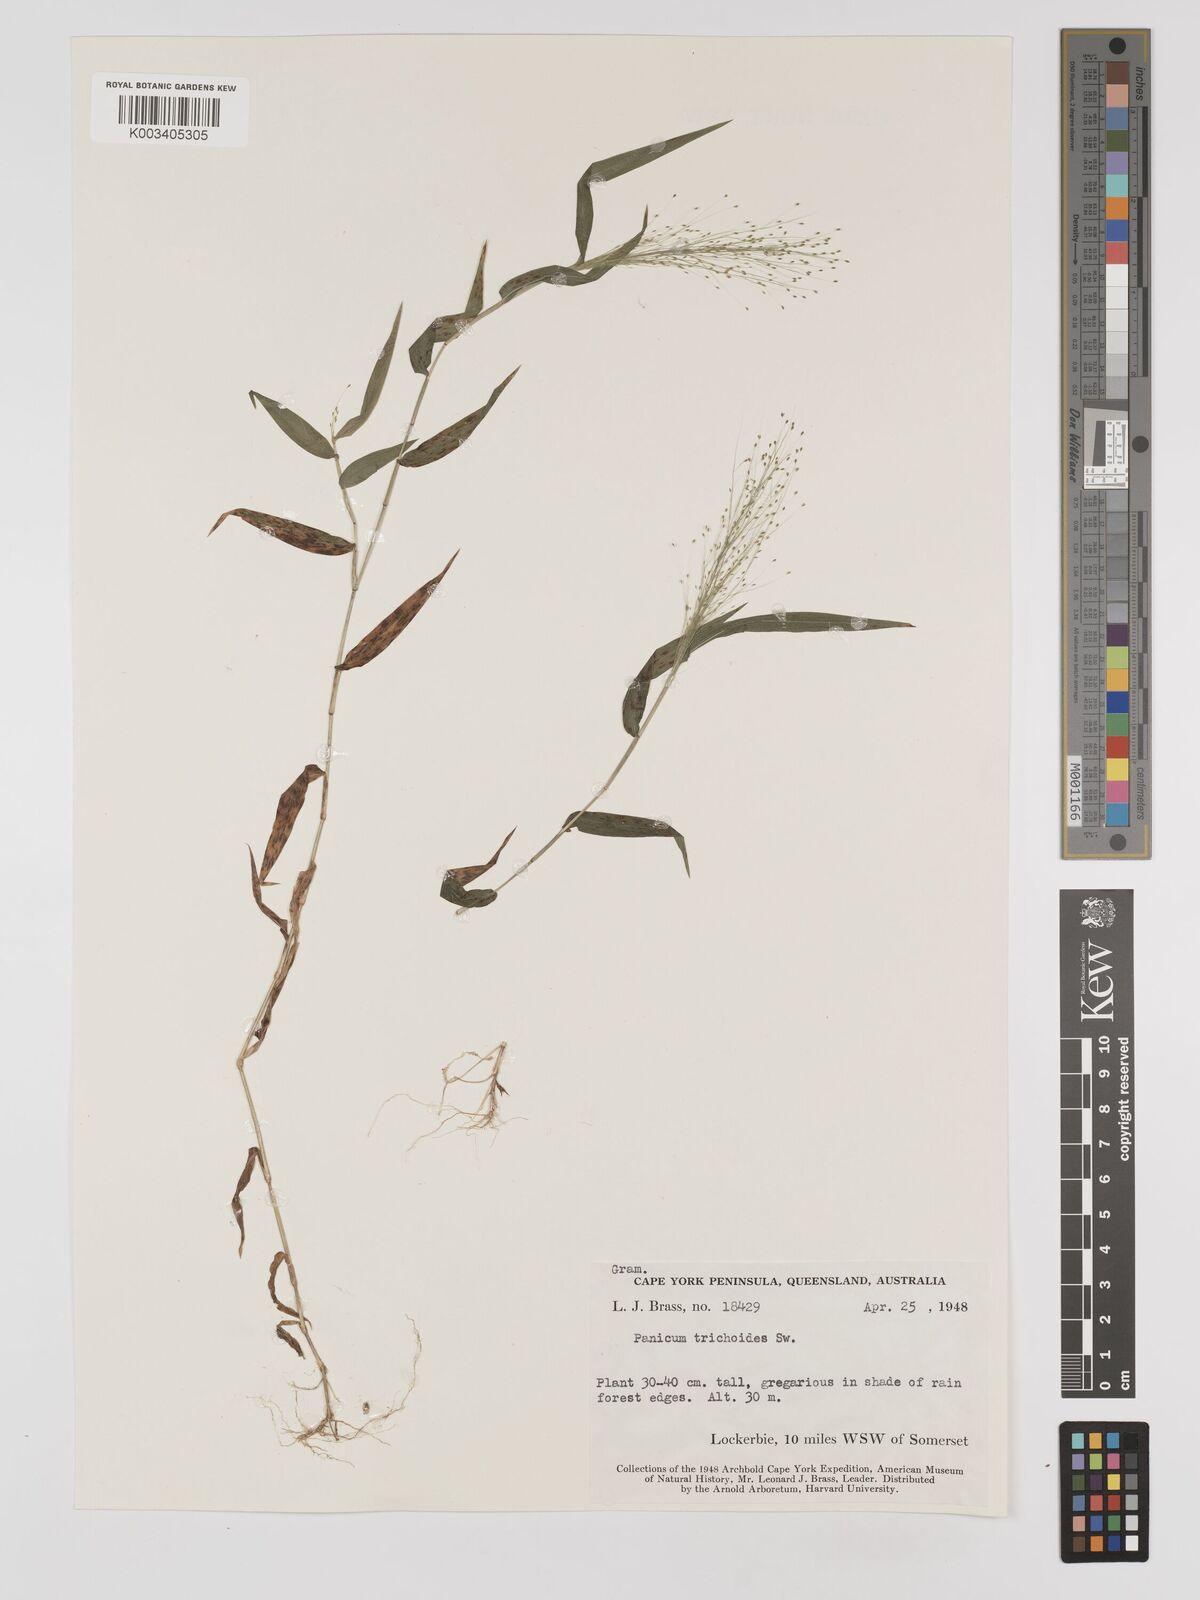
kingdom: Plantae
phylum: Tracheophyta
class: Liliopsida
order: Poales
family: Poaceae
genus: Panicum
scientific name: Panicum trichoides
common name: Tickle grass
